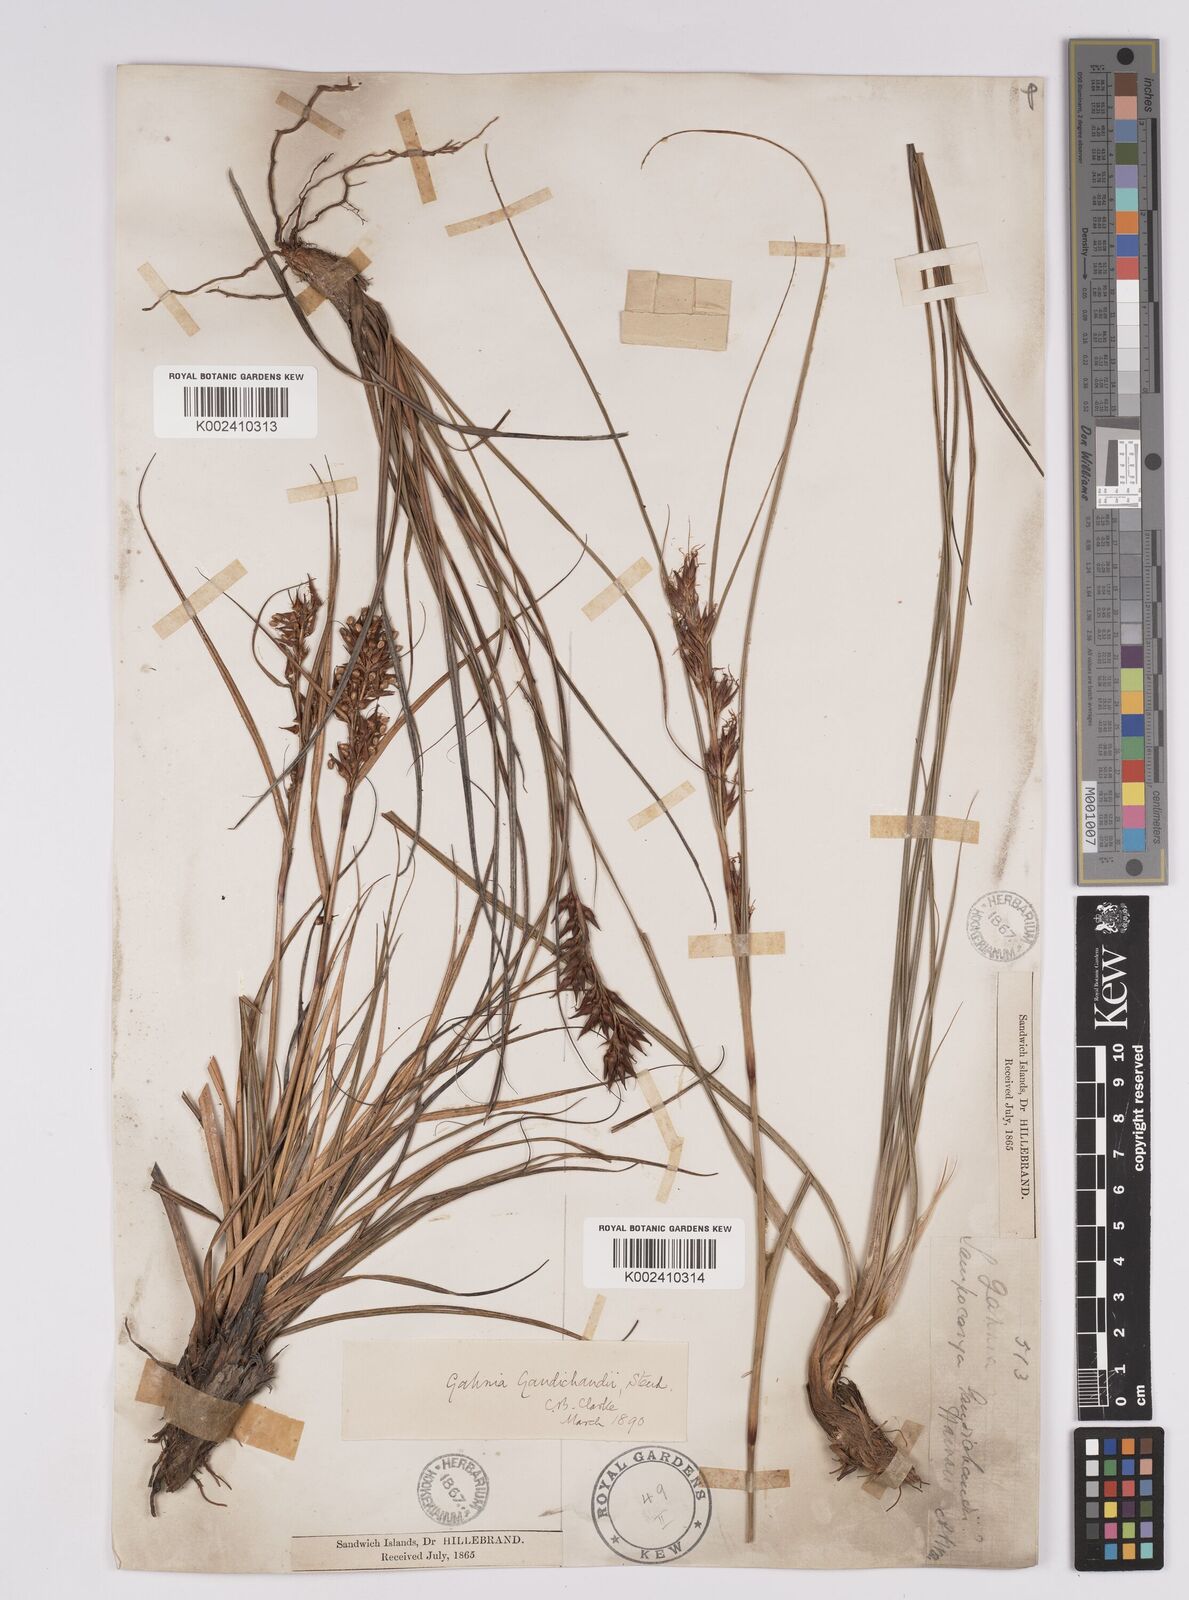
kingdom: Plantae
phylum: Tracheophyta
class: Liliopsida
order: Poales
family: Cyperaceae
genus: Morelotia
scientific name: Morelotia gahniiformis
